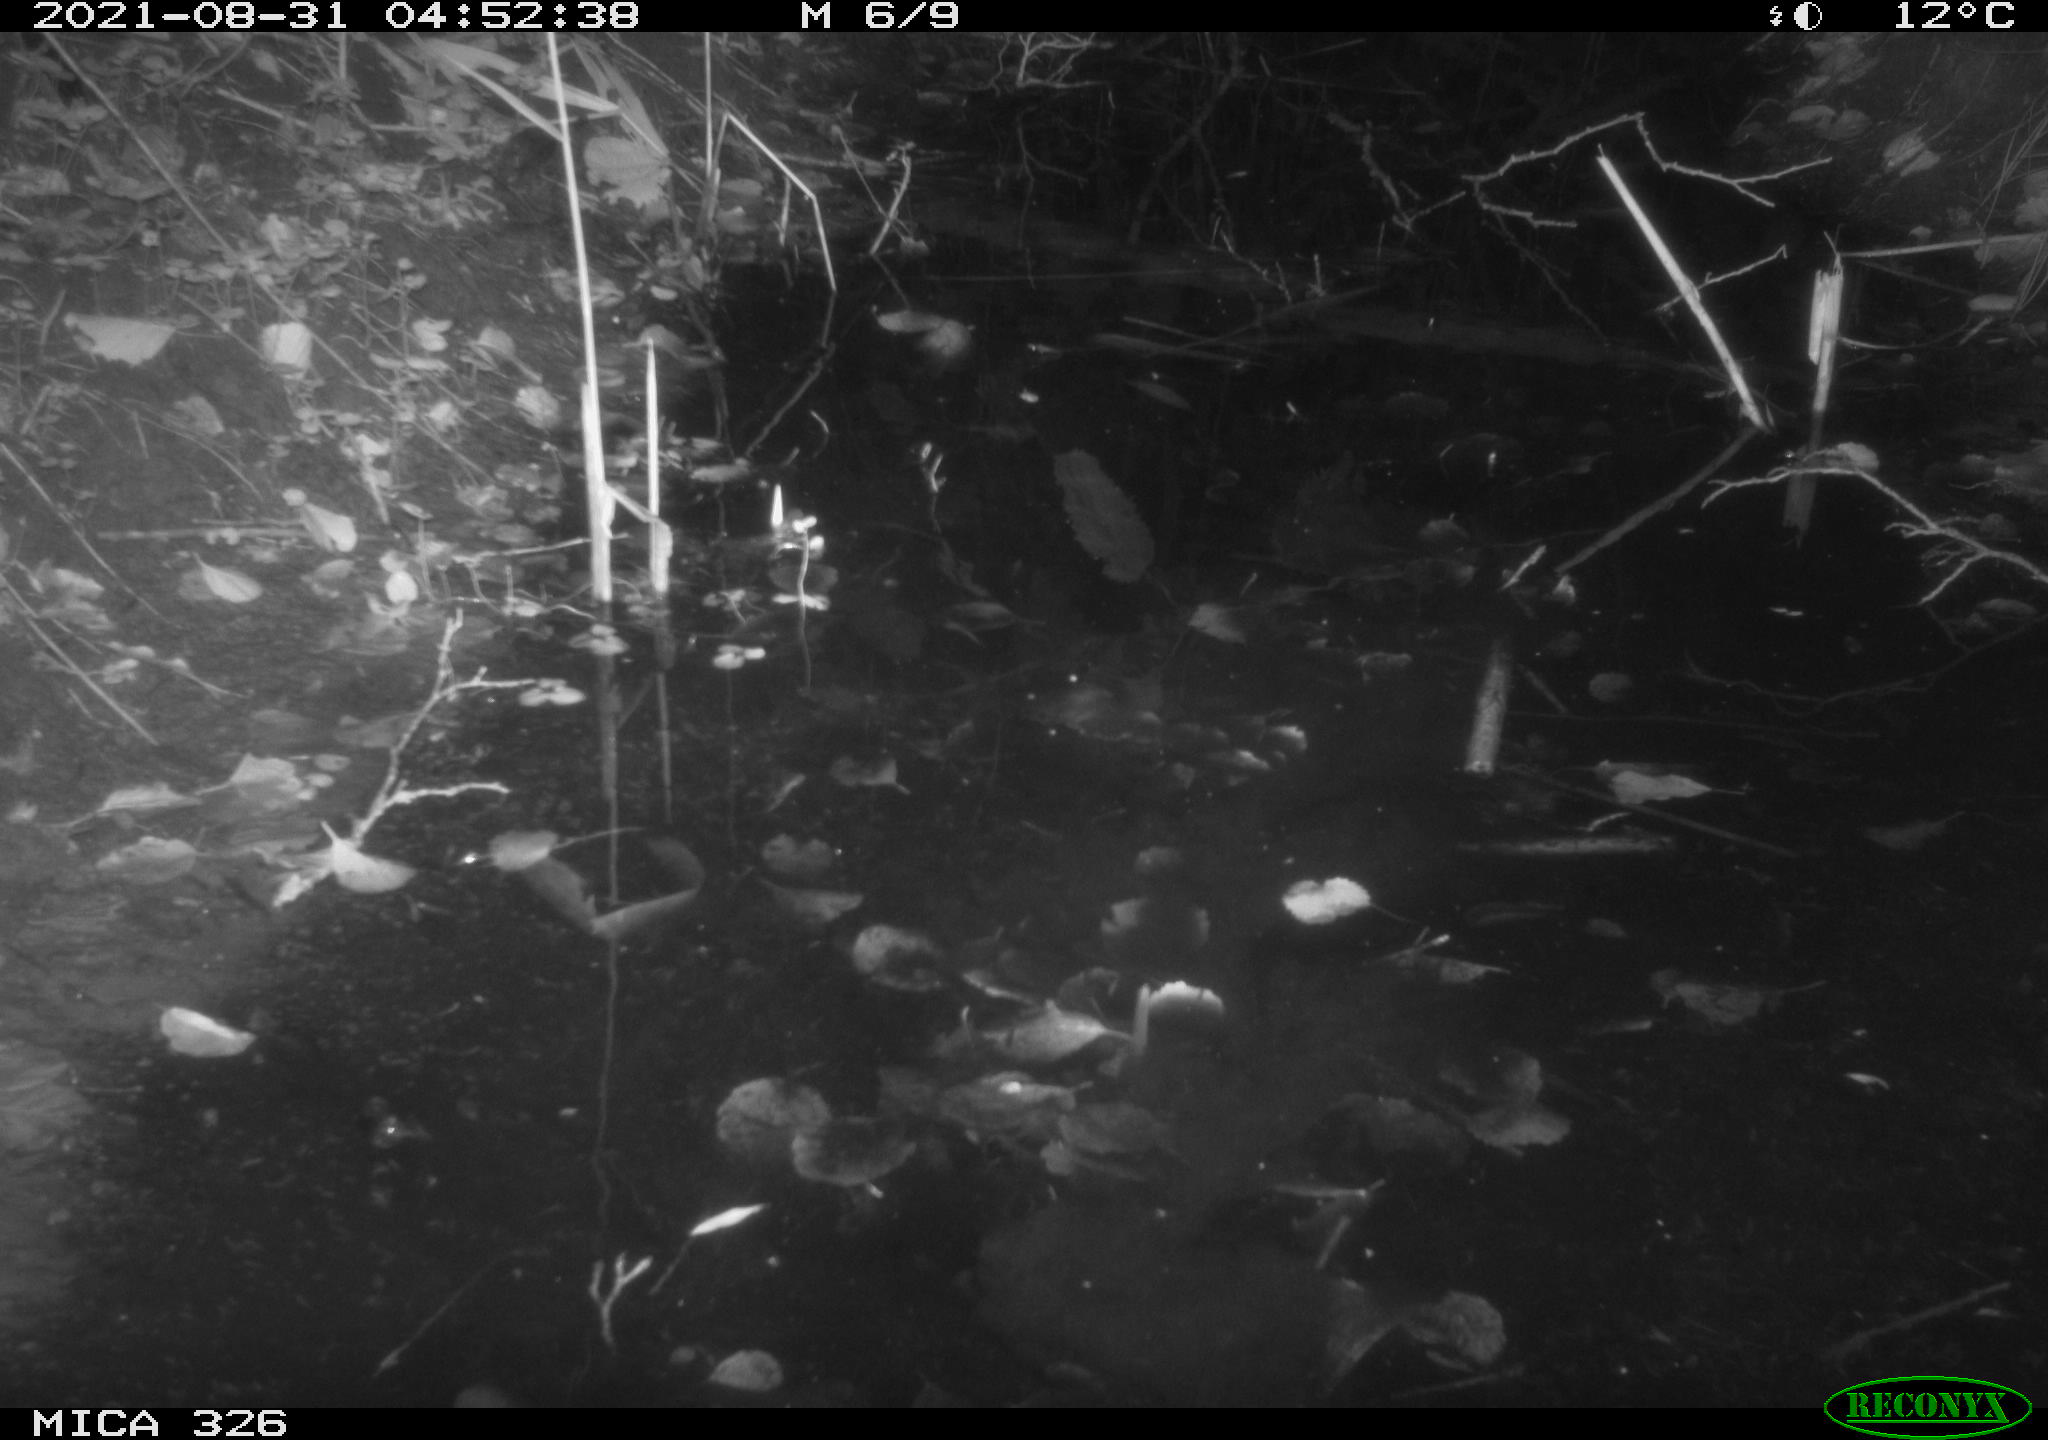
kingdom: Animalia
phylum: Chordata
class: Mammalia
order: Rodentia
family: Cricetidae
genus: Ondatra
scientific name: Ondatra zibethicus
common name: Muskrat
